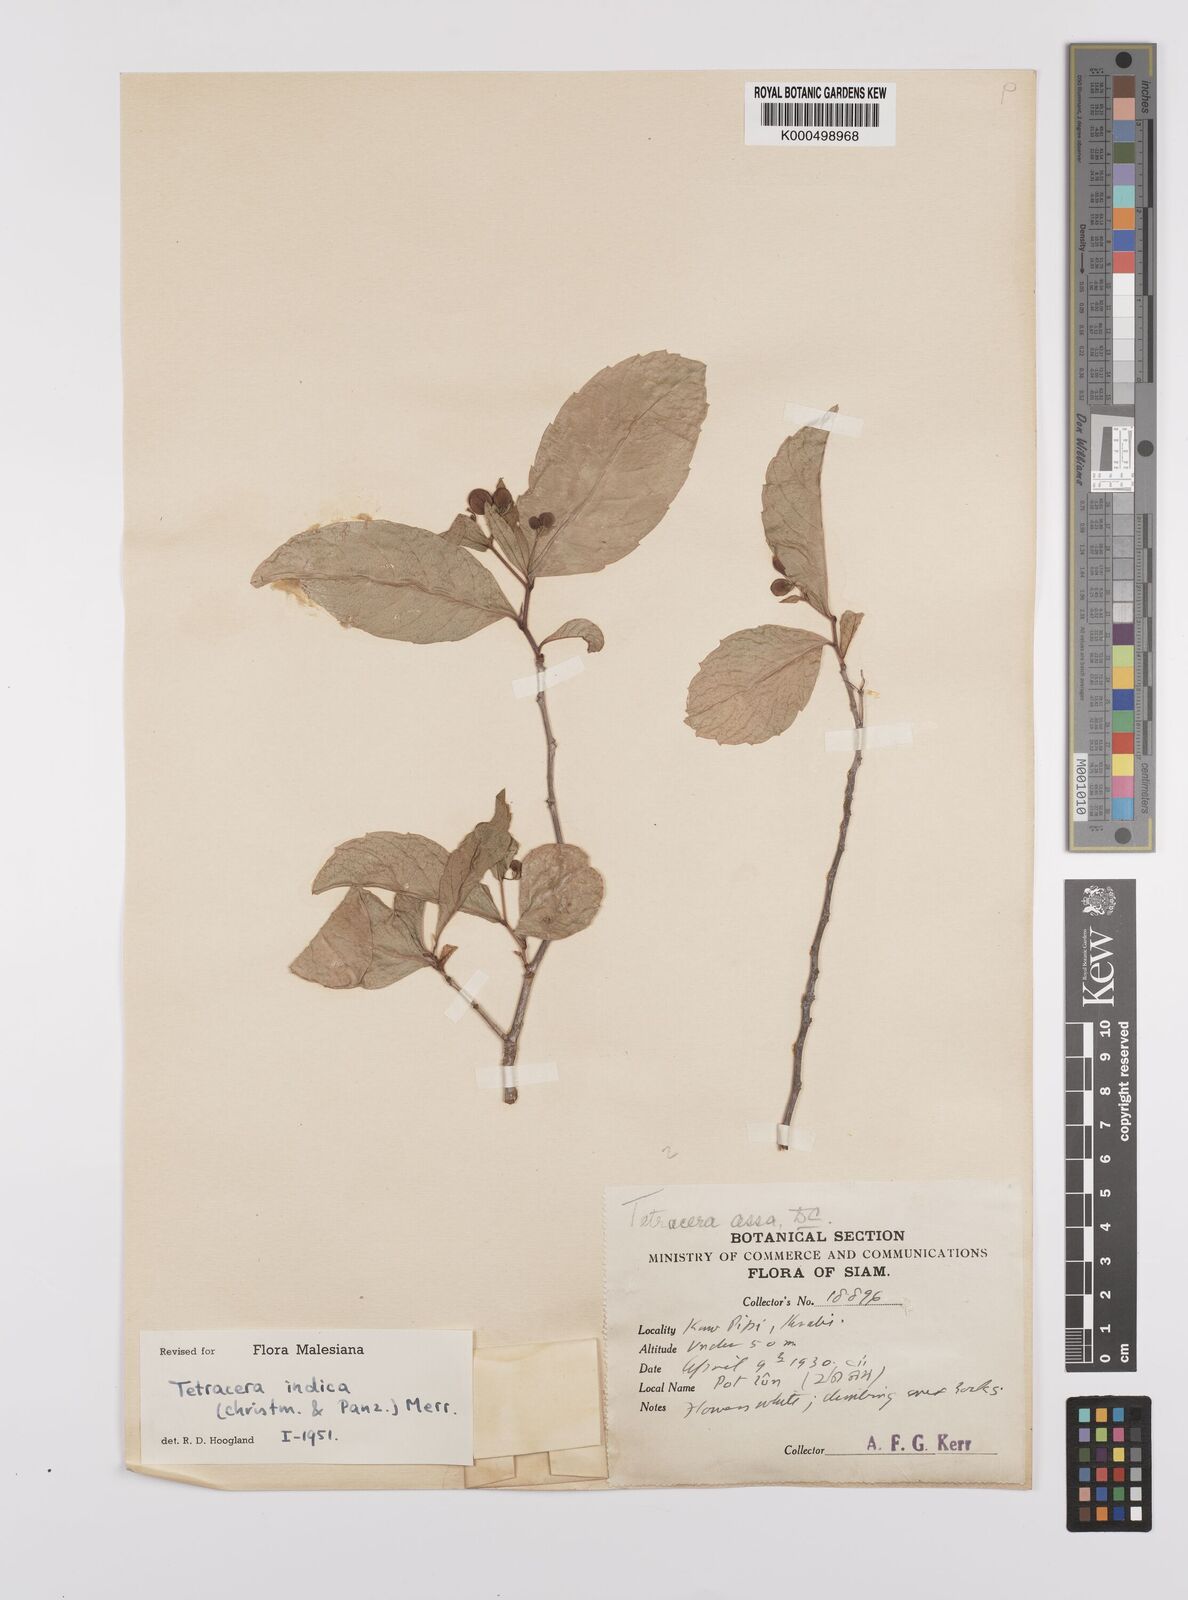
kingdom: Plantae
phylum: Tracheophyta
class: Magnoliopsida
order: Dilleniales
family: Dilleniaceae
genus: Tetracera
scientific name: Tetracera indica
